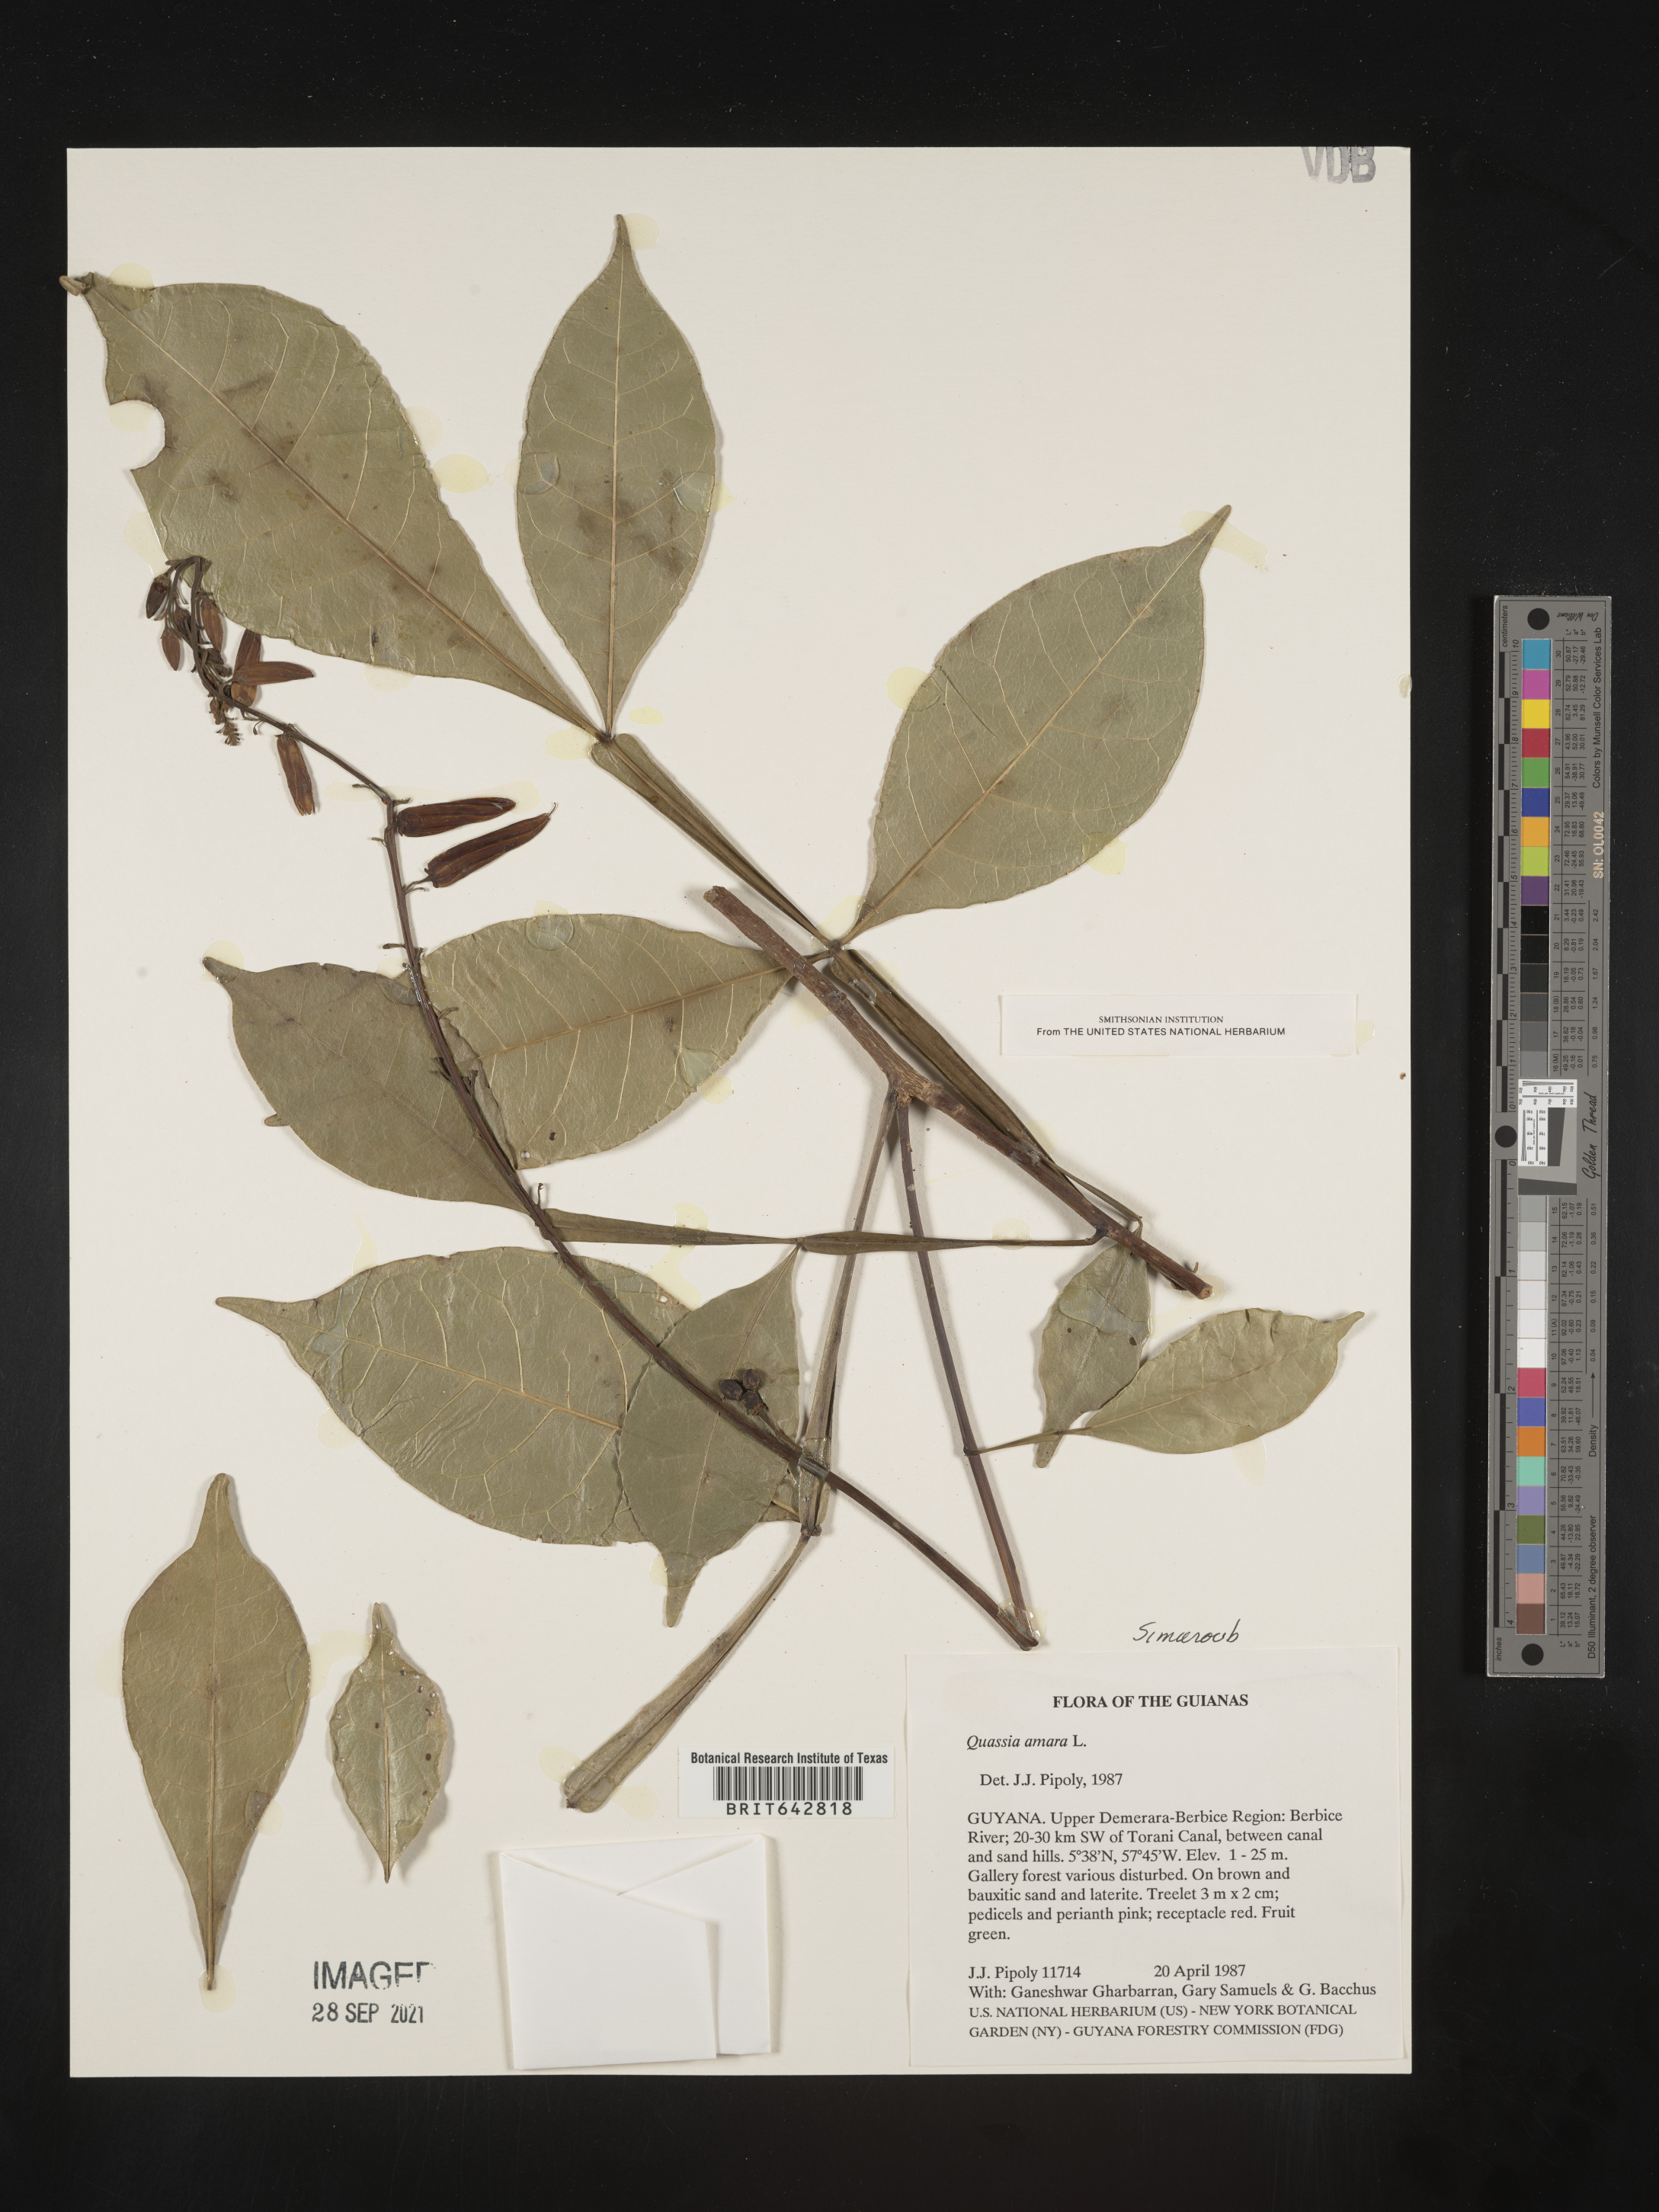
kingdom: Plantae
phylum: Tracheophyta
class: Magnoliopsida
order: Sapindales
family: Simaroubaceae
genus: Picrasma
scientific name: Picrasma
